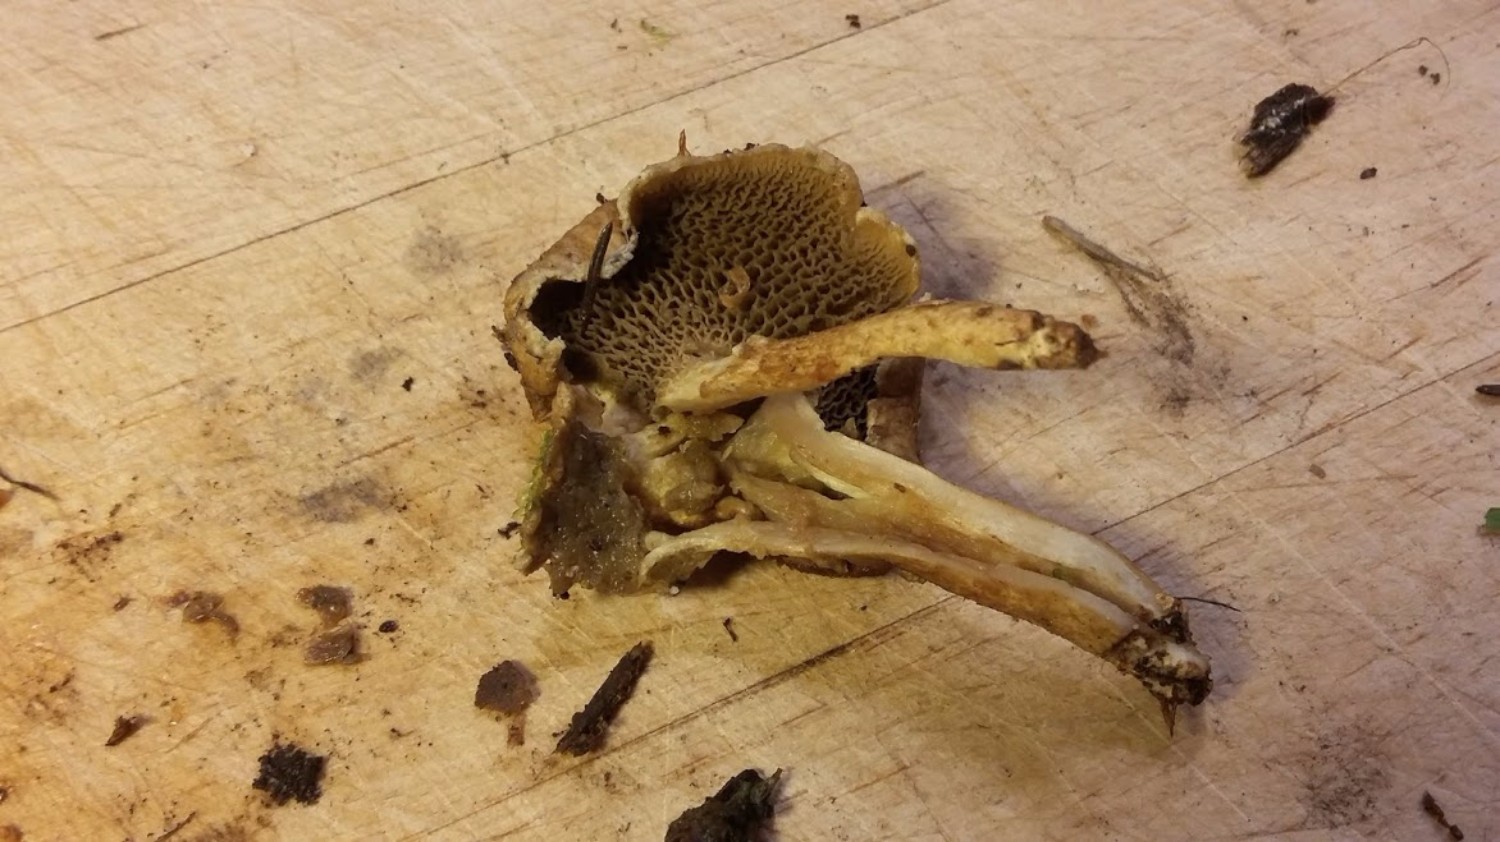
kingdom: Fungi
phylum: Basidiomycota
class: Agaricomycetes
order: Boletales
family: Suillaceae
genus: Suillus
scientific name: Suillus cavipes
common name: hulstokket slimrørhat
